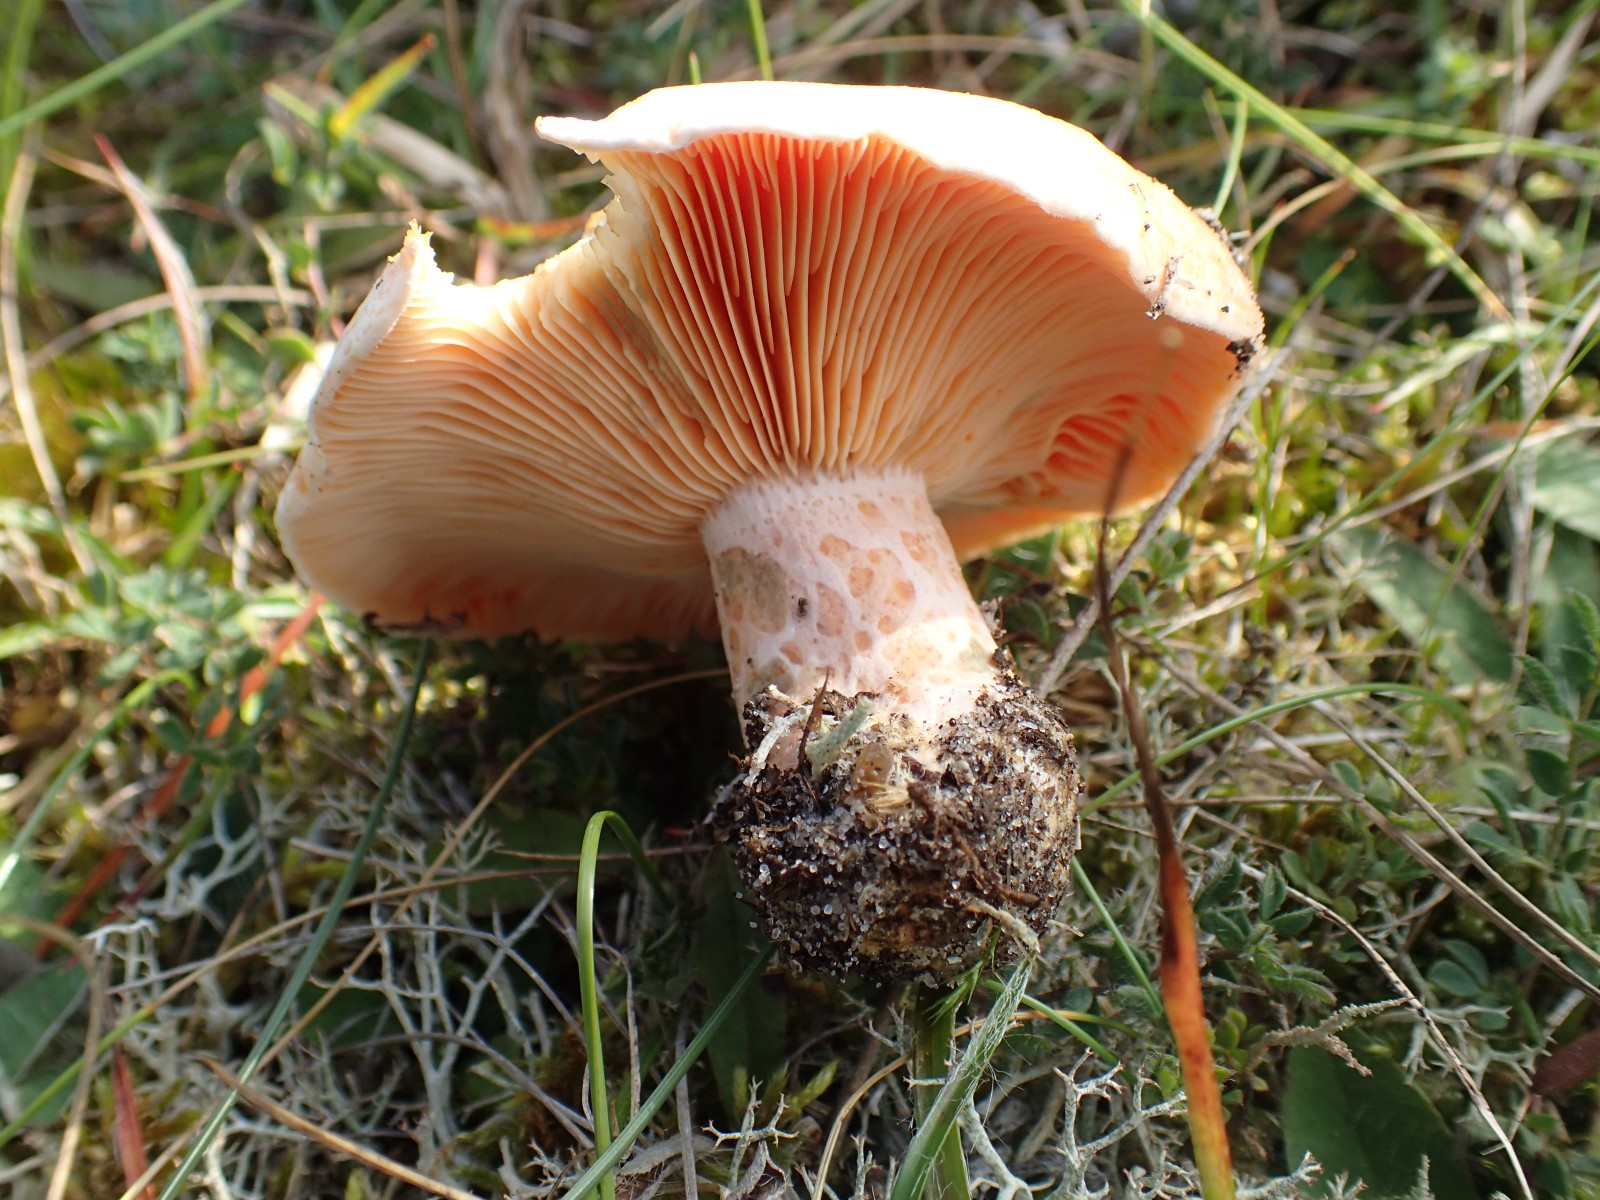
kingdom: Fungi
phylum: Basidiomycota
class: Agaricomycetes
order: Russulales
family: Russulaceae
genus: Lactarius
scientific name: Lactarius deliciosus
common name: velsmagende mælkehat
